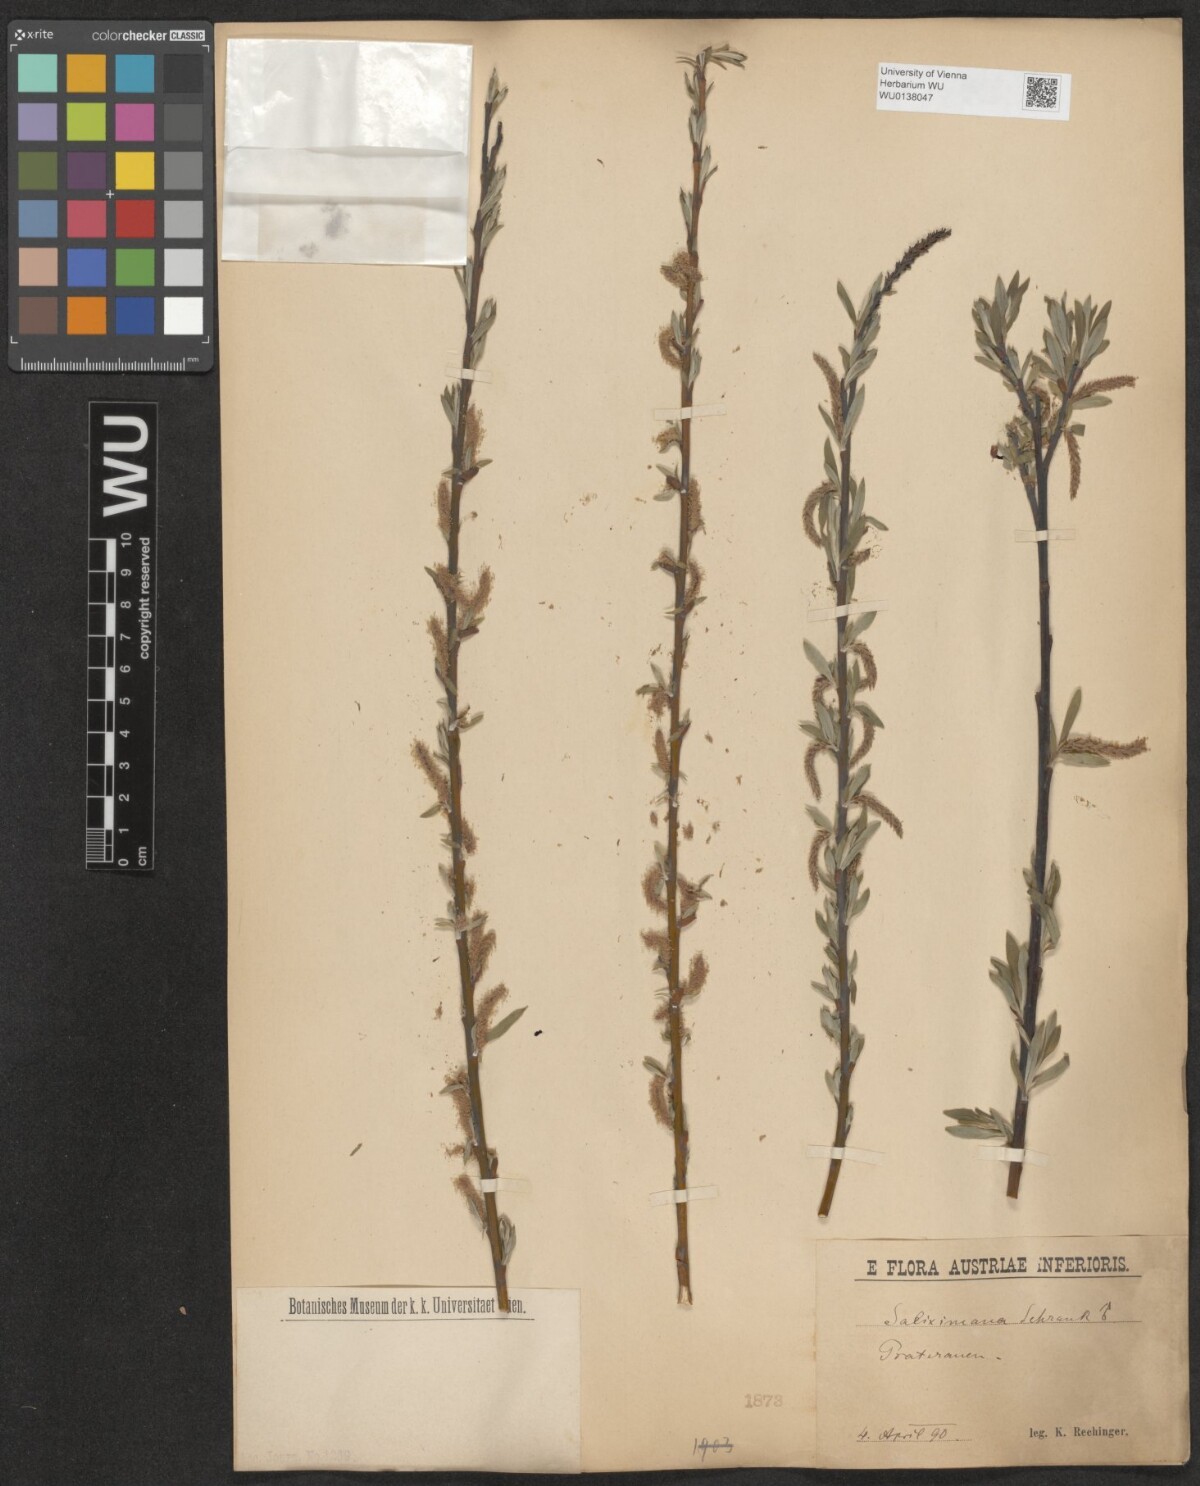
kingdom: Plantae
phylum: Tracheophyta
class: Magnoliopsida
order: Malpighiales
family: Salicaceae
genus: Salix
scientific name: Salix eleagnos
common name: Elaeagnus willow
